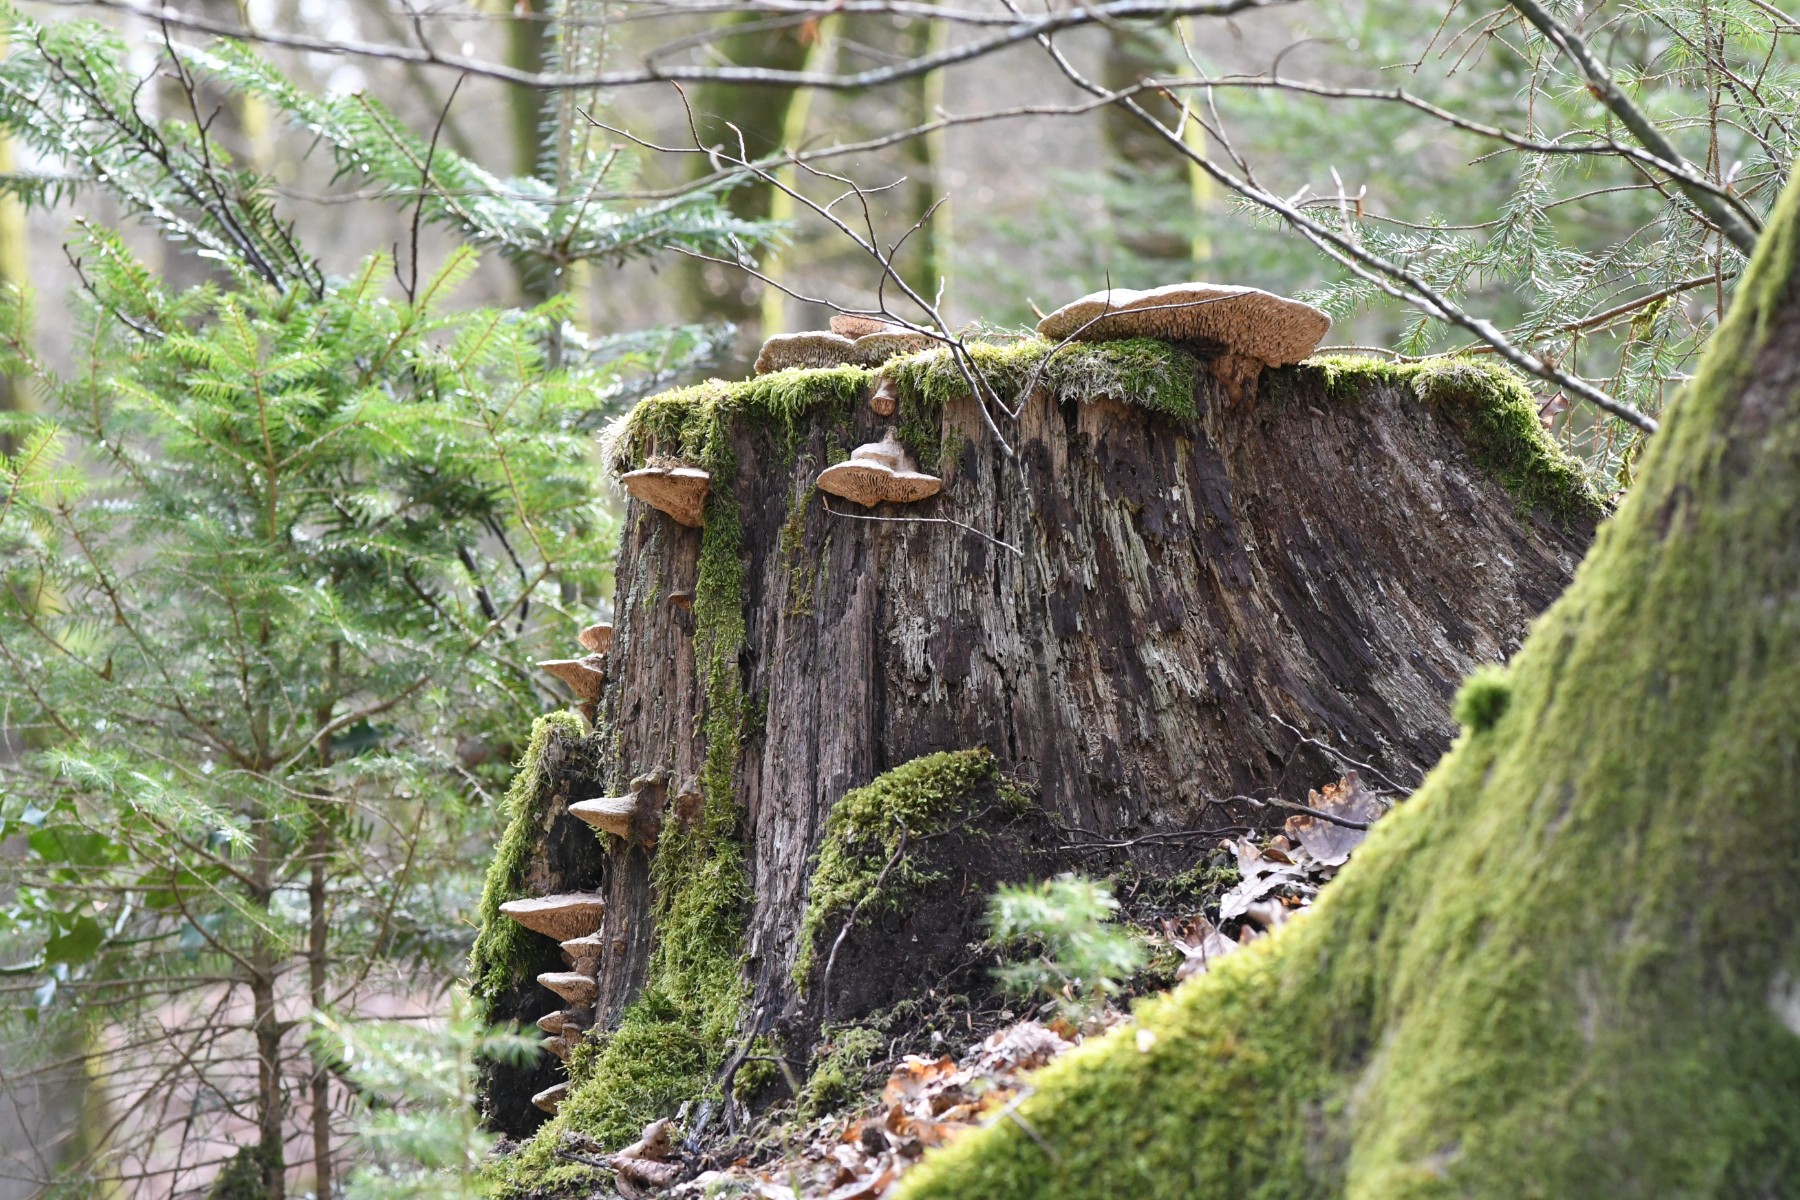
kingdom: Fungi
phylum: Basidiomycota
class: Agaricomycetes
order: Polyporales
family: Fomitopsidaceae
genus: Daedalea
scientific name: Daedalea quercina
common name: ege-labyrintsvamp
